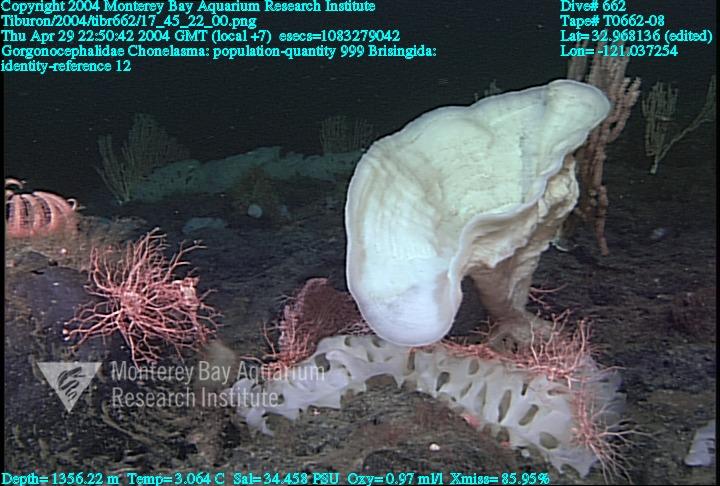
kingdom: Animalia
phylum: Porifera
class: Hexactinellida
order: Sceptrulophora
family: Euretidae
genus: Chonelasma
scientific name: Chonelasma
